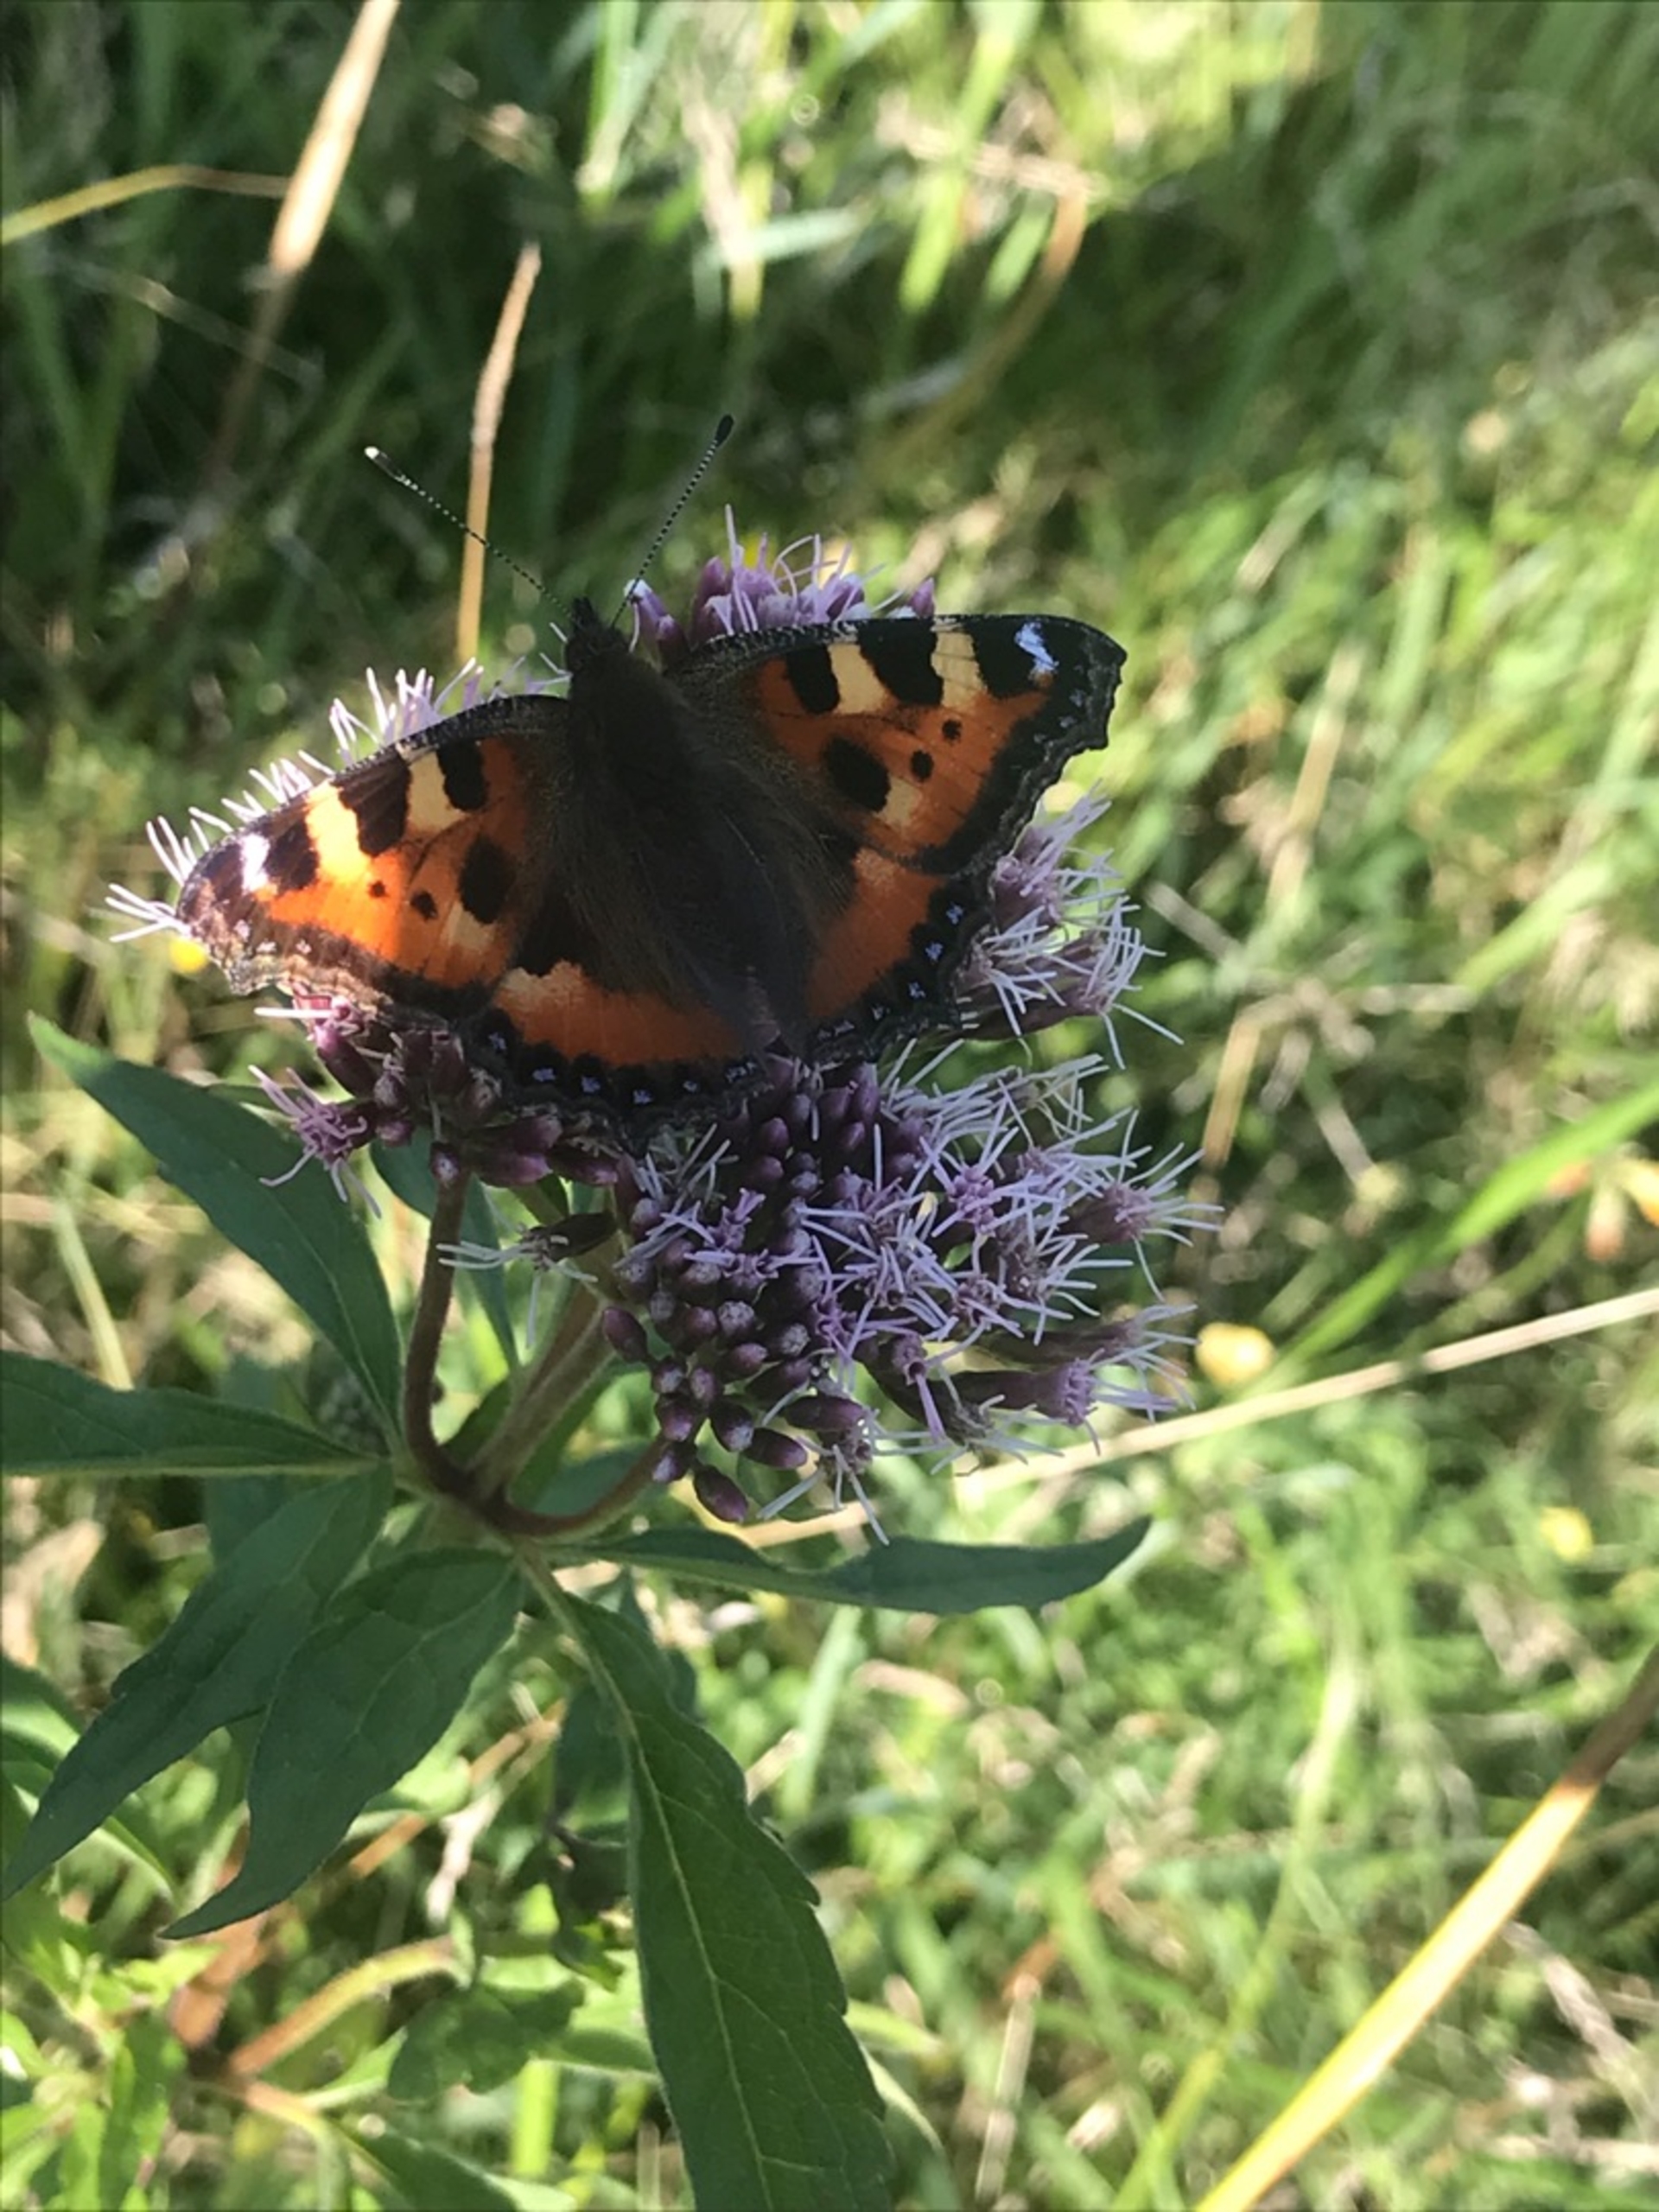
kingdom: Animalia
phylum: Arthropoda
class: Insecta
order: Lepidoptera
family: Nymphalidae
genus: Aglais
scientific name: Aglais urticae
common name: Nældens takvinge
